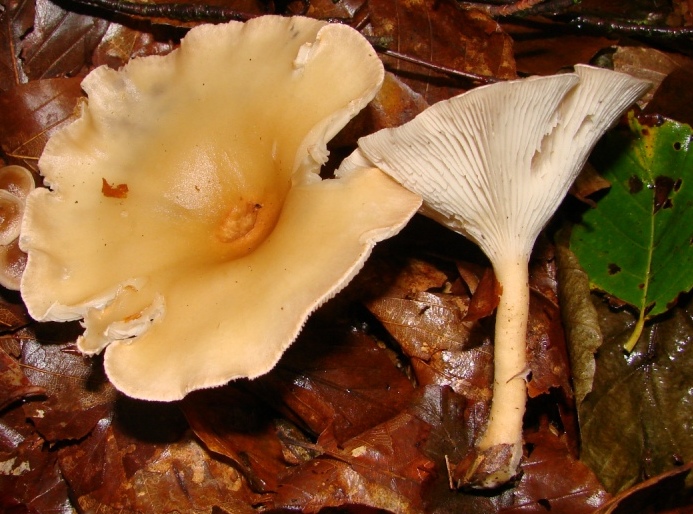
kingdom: Fungi
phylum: Basidiomycota
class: Agaricomycetes
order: Agaricales
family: Tricholomataceae
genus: Infundibulicybe
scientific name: Infundibulicybe gibba
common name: almindelig tragthat
